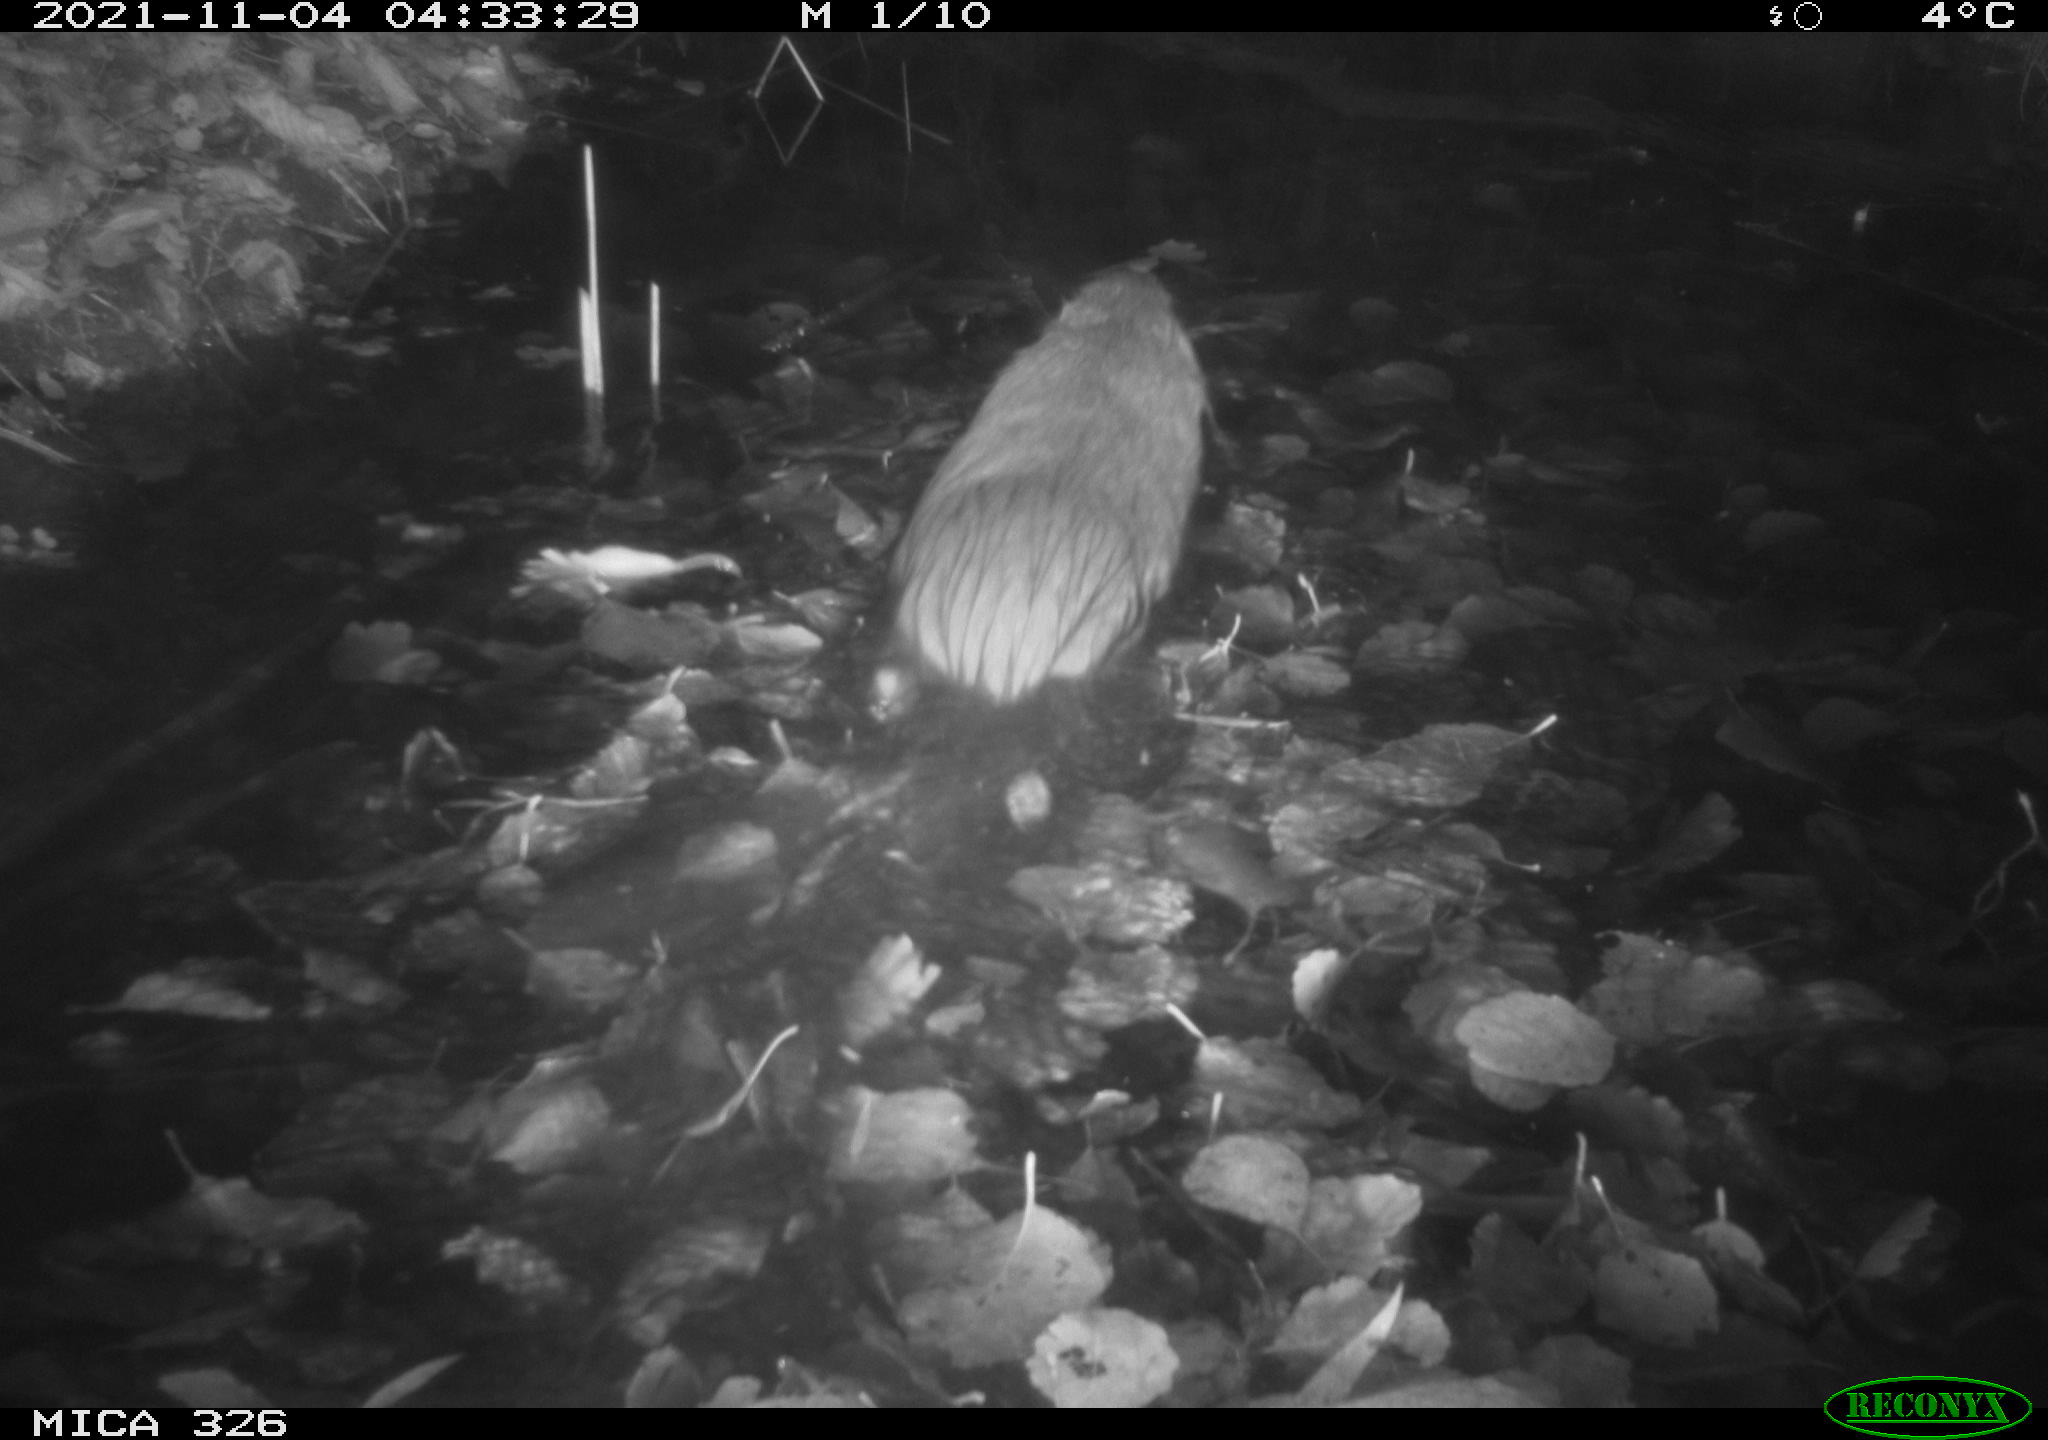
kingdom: Animalia
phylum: Chordata
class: Mammalia
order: Rodentia
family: Myocastoridae
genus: Myocastor
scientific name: Myocastor coypus
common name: Coypu
